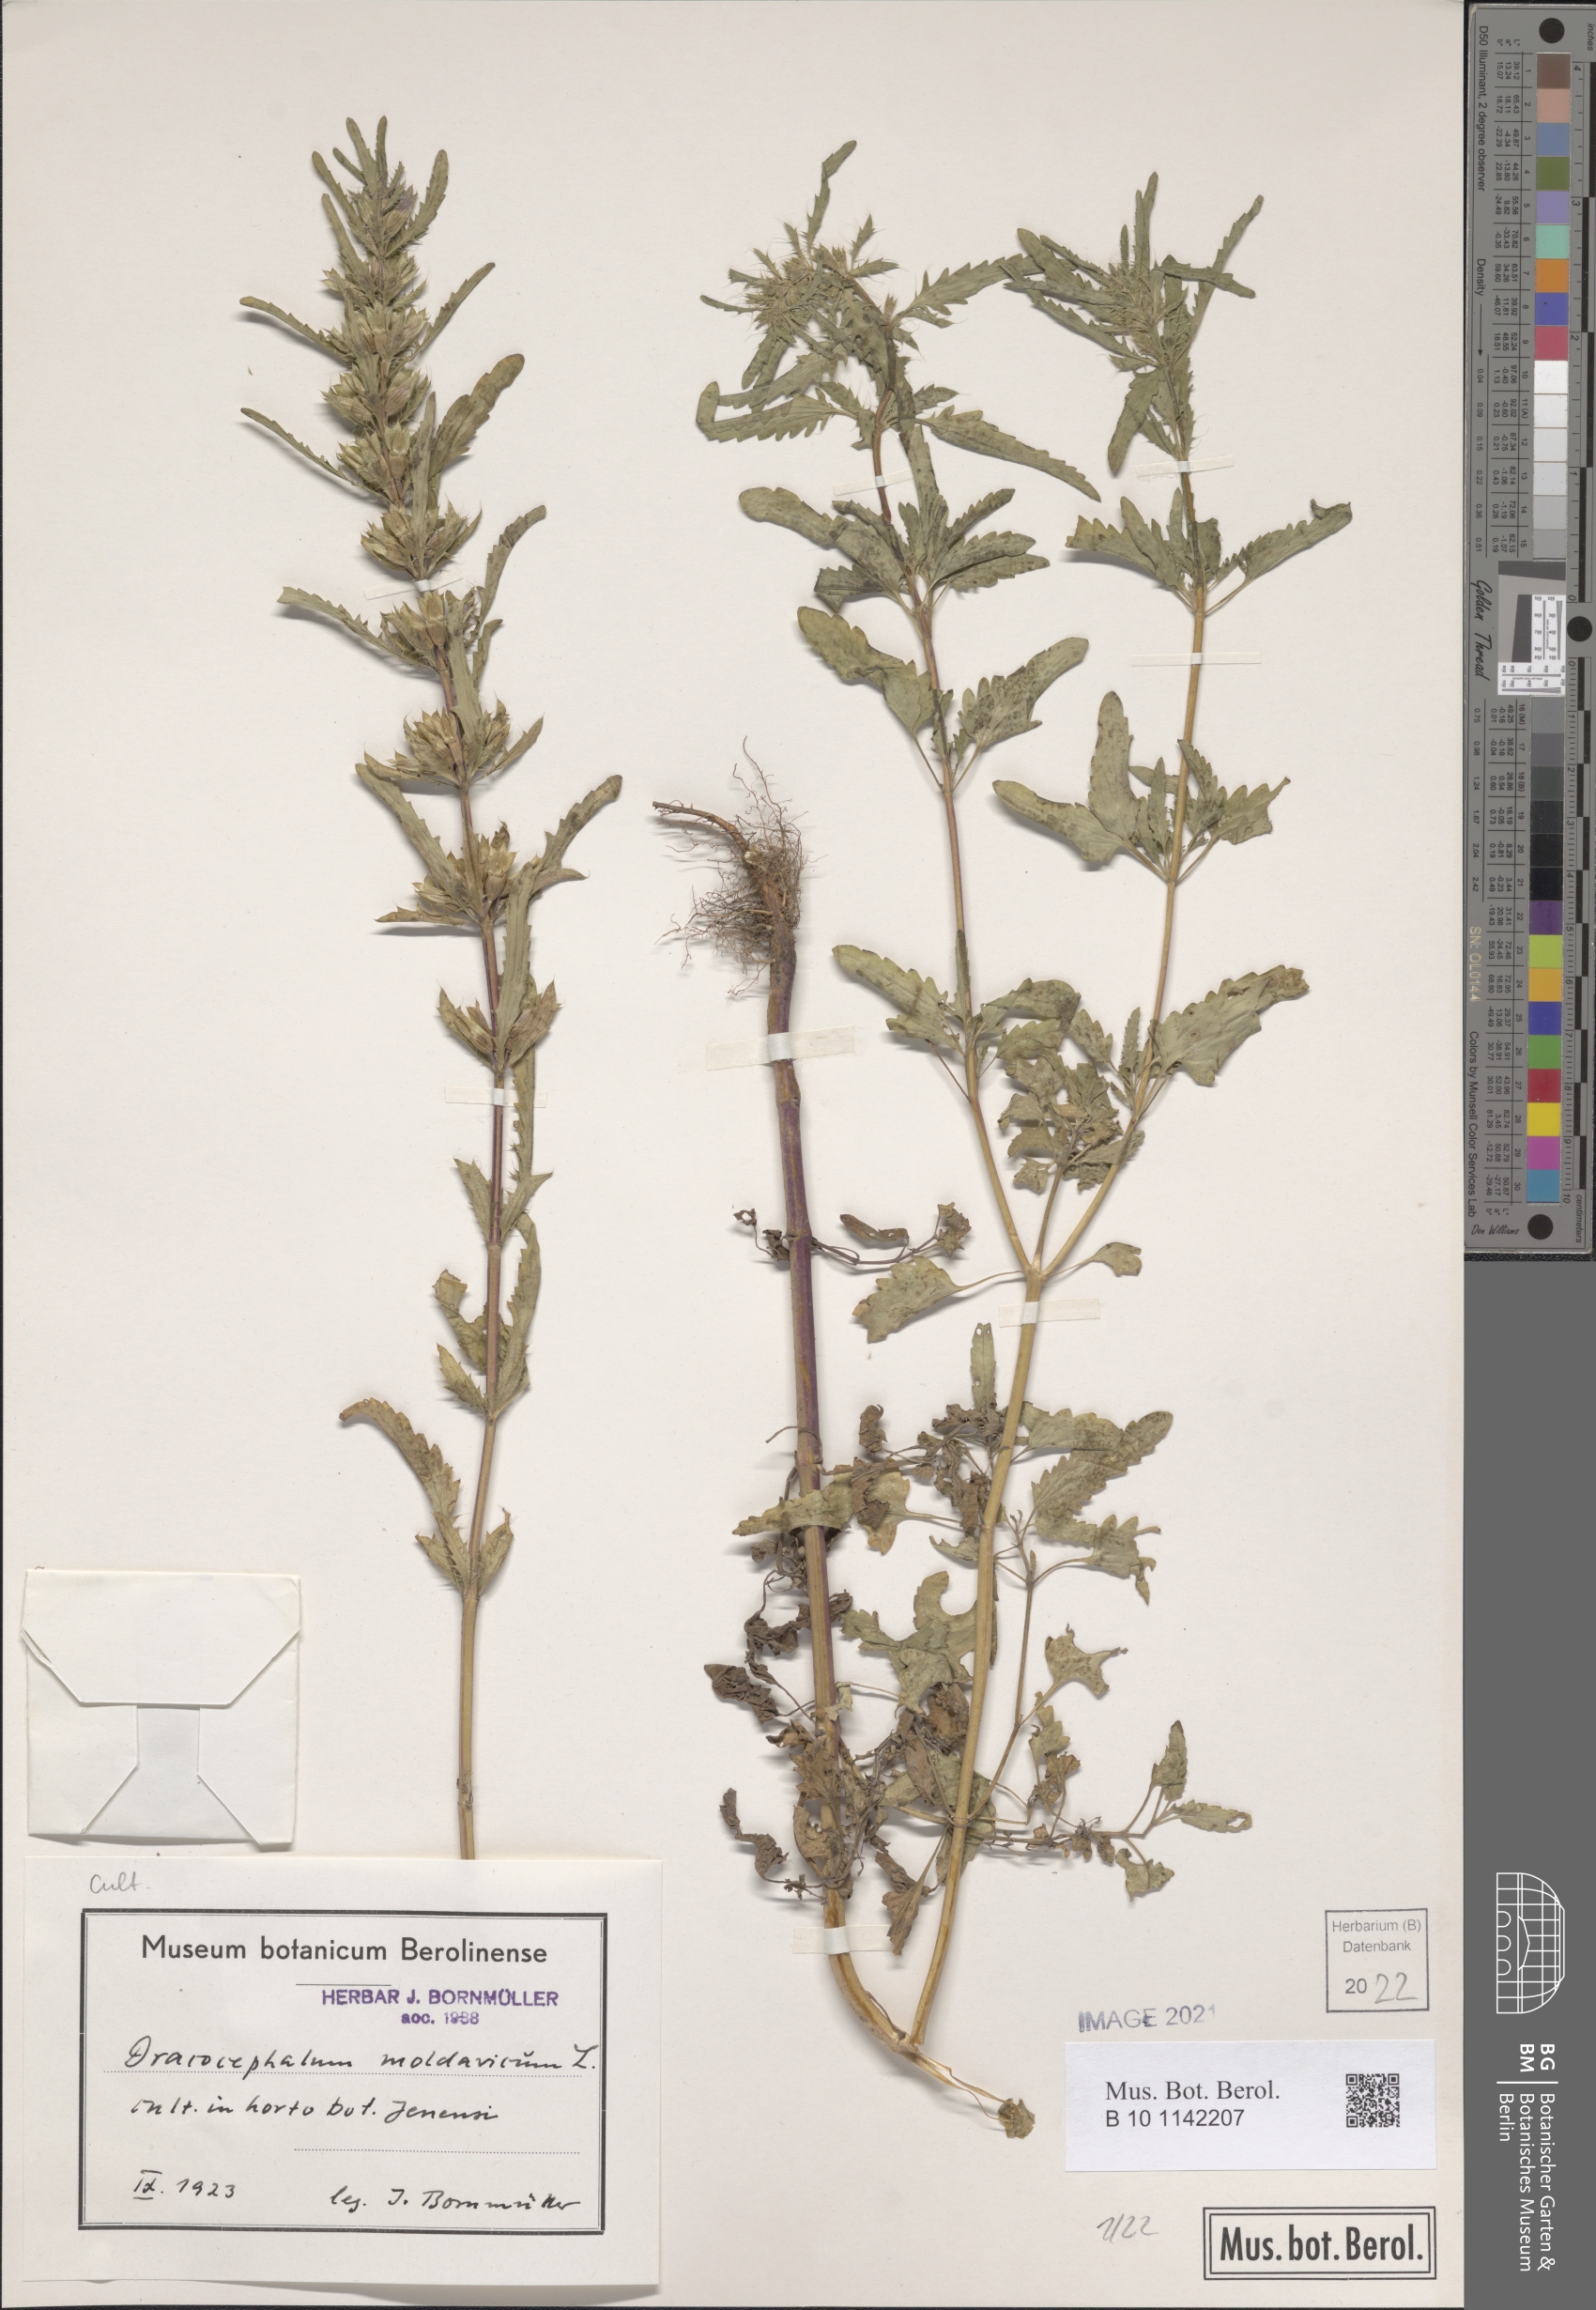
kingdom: Plantae
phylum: Tracheophyta
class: Magnoliopsida
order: Lamiales
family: Lamiaceae
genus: Dracocephalum
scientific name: Dracocephalum moldavica
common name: Moldavian dragonhead
